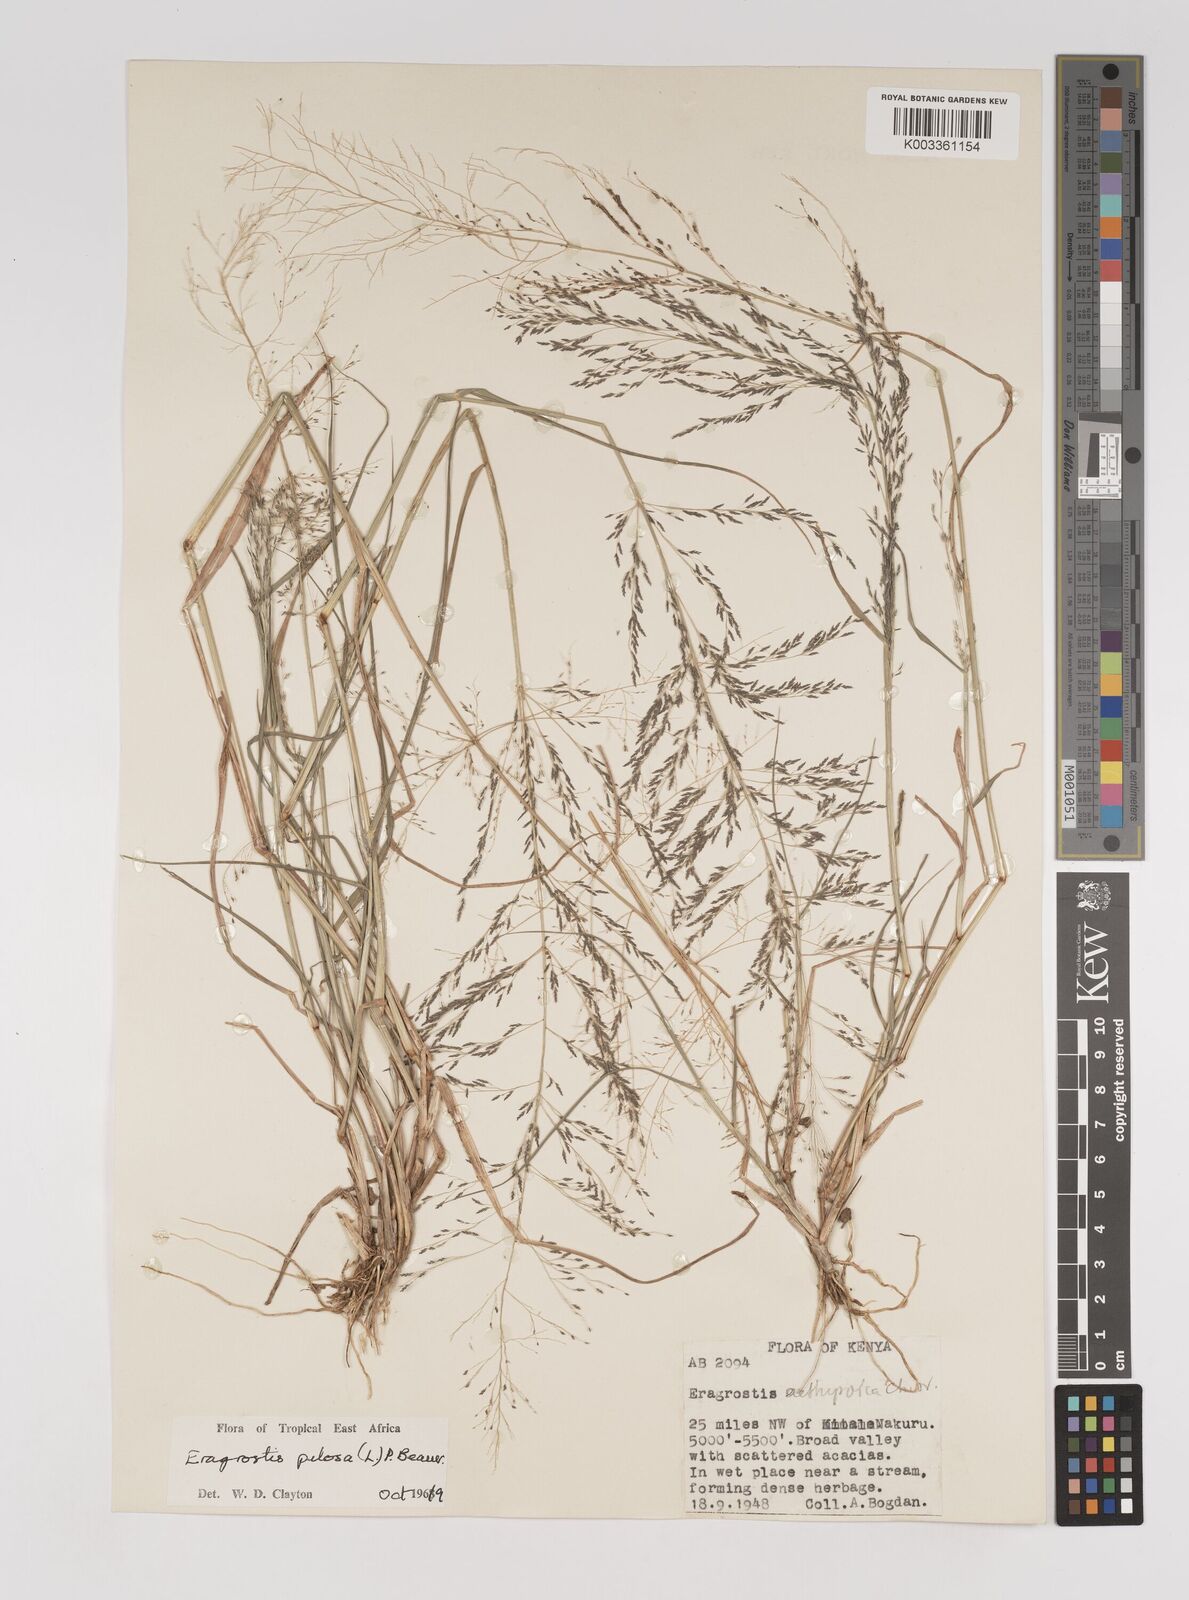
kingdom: Plantae
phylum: Tracheophyta
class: Liliopsida
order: Poales
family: Poaceae
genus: Eragrostis
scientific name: Eragrostis pilosa
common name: Indian lovegrass
